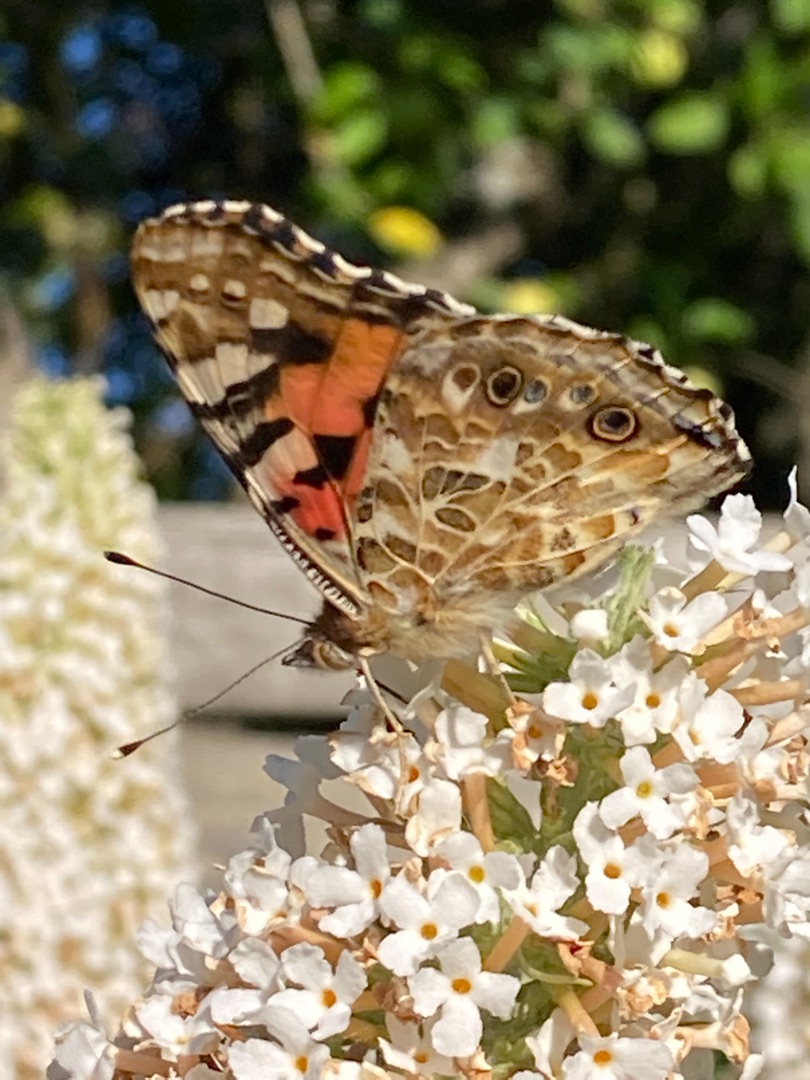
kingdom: Animalia
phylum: Arthropoda
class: Insecta
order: Lepidoptera
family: Nymphalidae
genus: Vanessa
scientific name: Vanessa cardui
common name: Tidselsommerfugl
